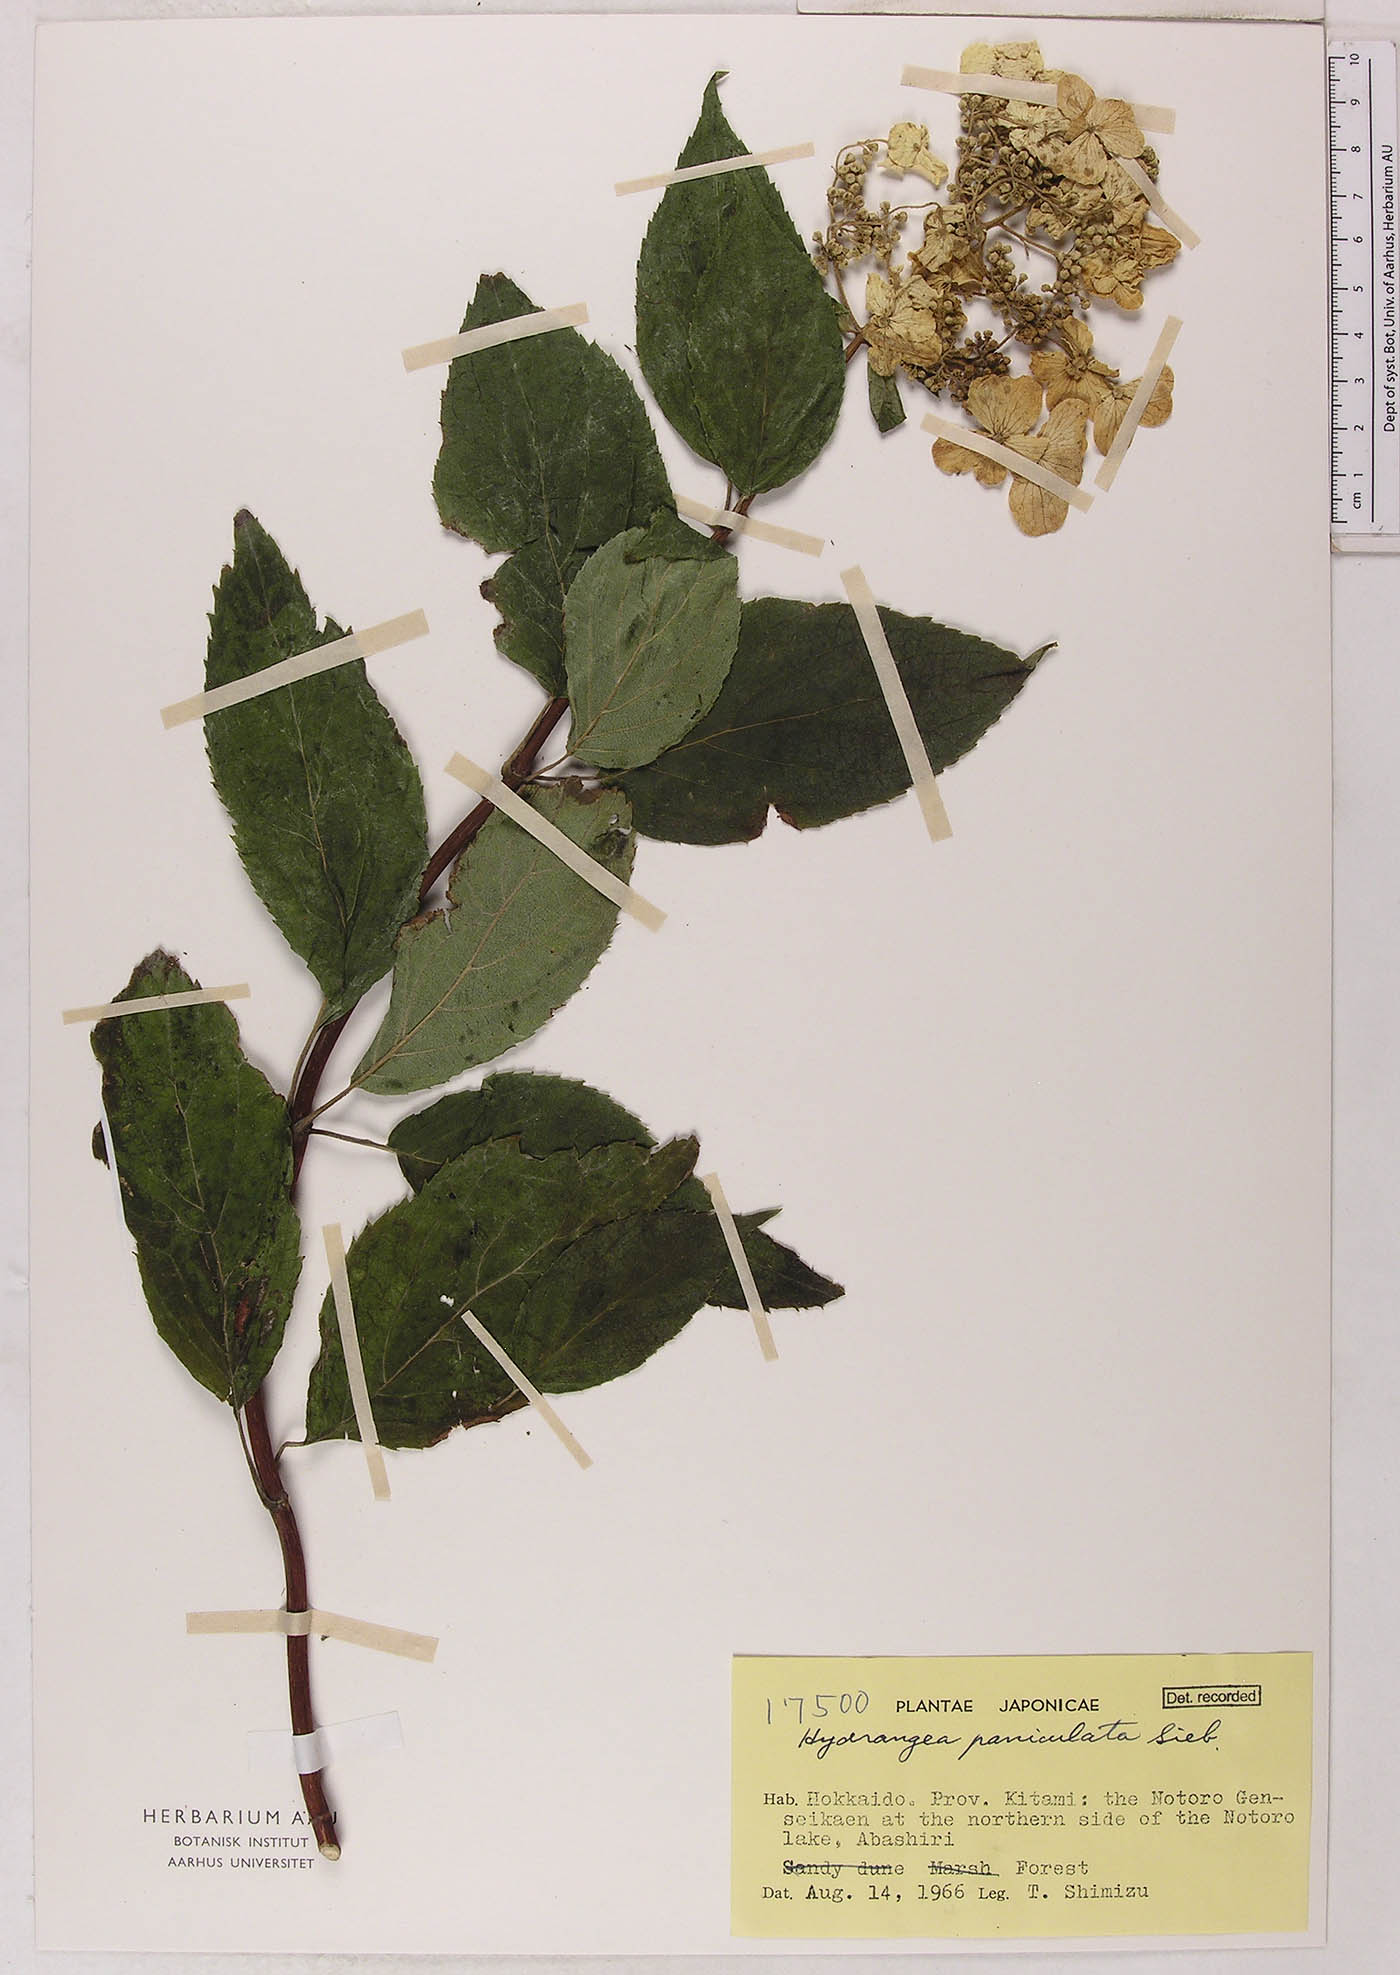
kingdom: Plantae
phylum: Tracheophyta
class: Magnoliopsida
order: Cornales
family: Hydrangeaceae
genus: Hydrangea
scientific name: Hydrangea paniculata
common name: Panicled hydrangea
